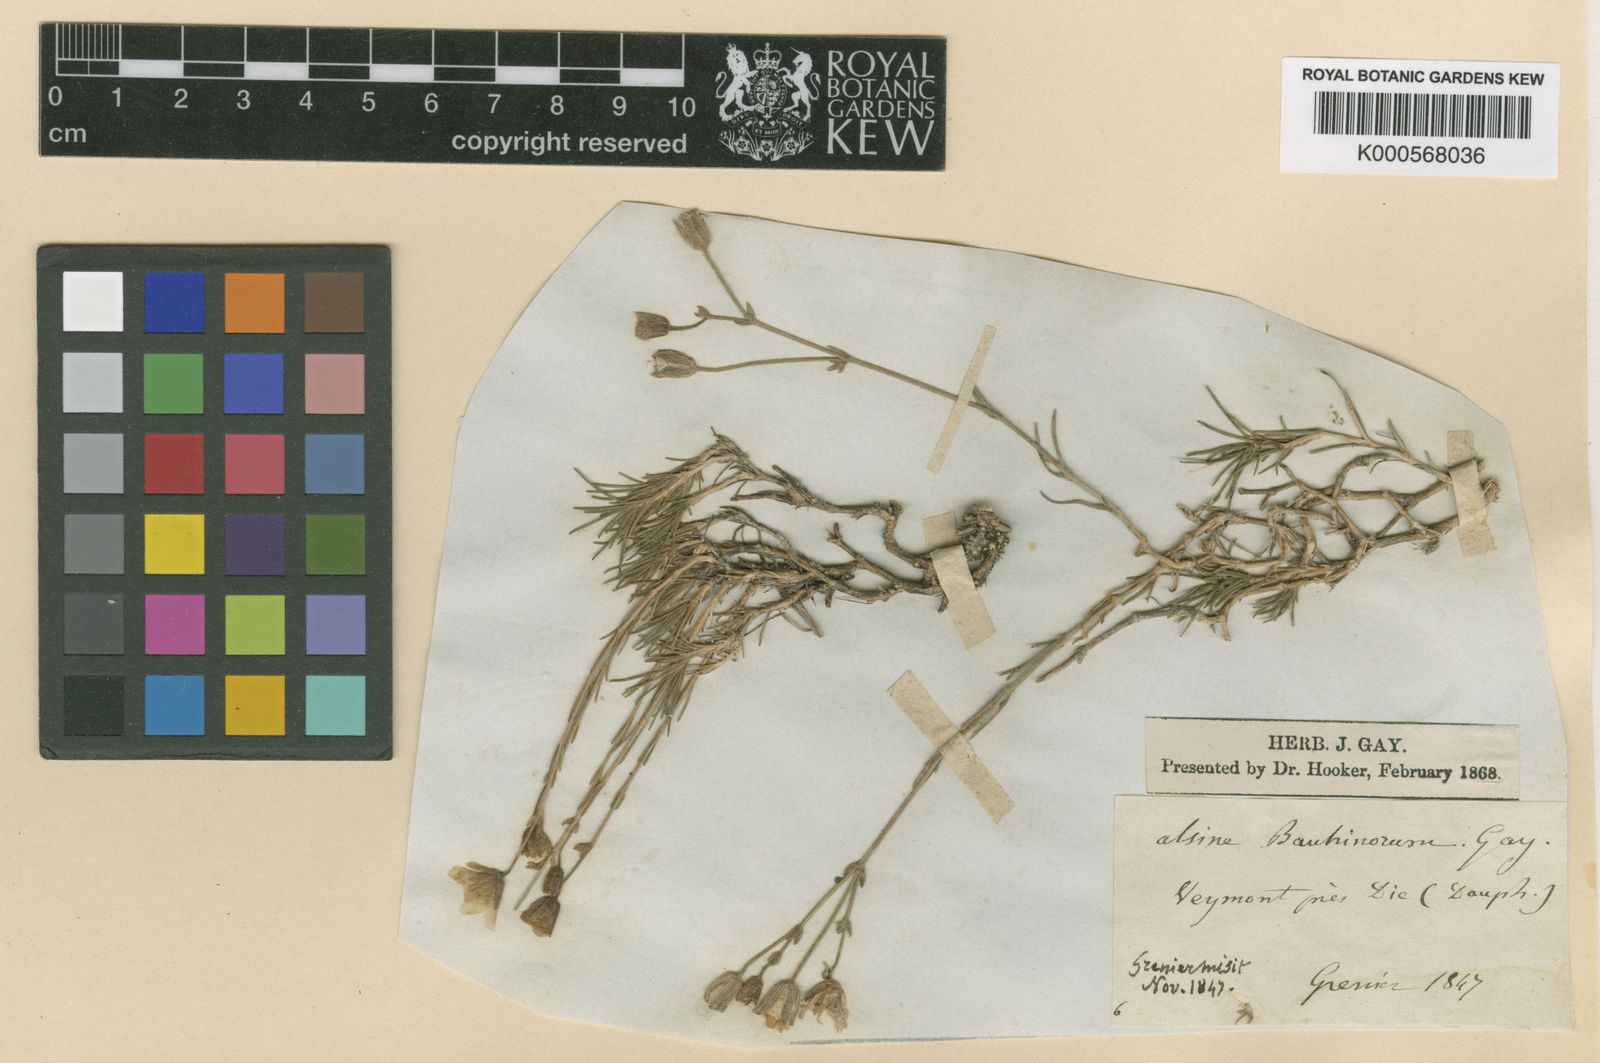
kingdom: Plantae
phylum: Tracheophyta
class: Magnoliopsida
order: Caryophyllales
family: Caryophyllaceae
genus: Cherleria
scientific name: Cherleria capillacea
